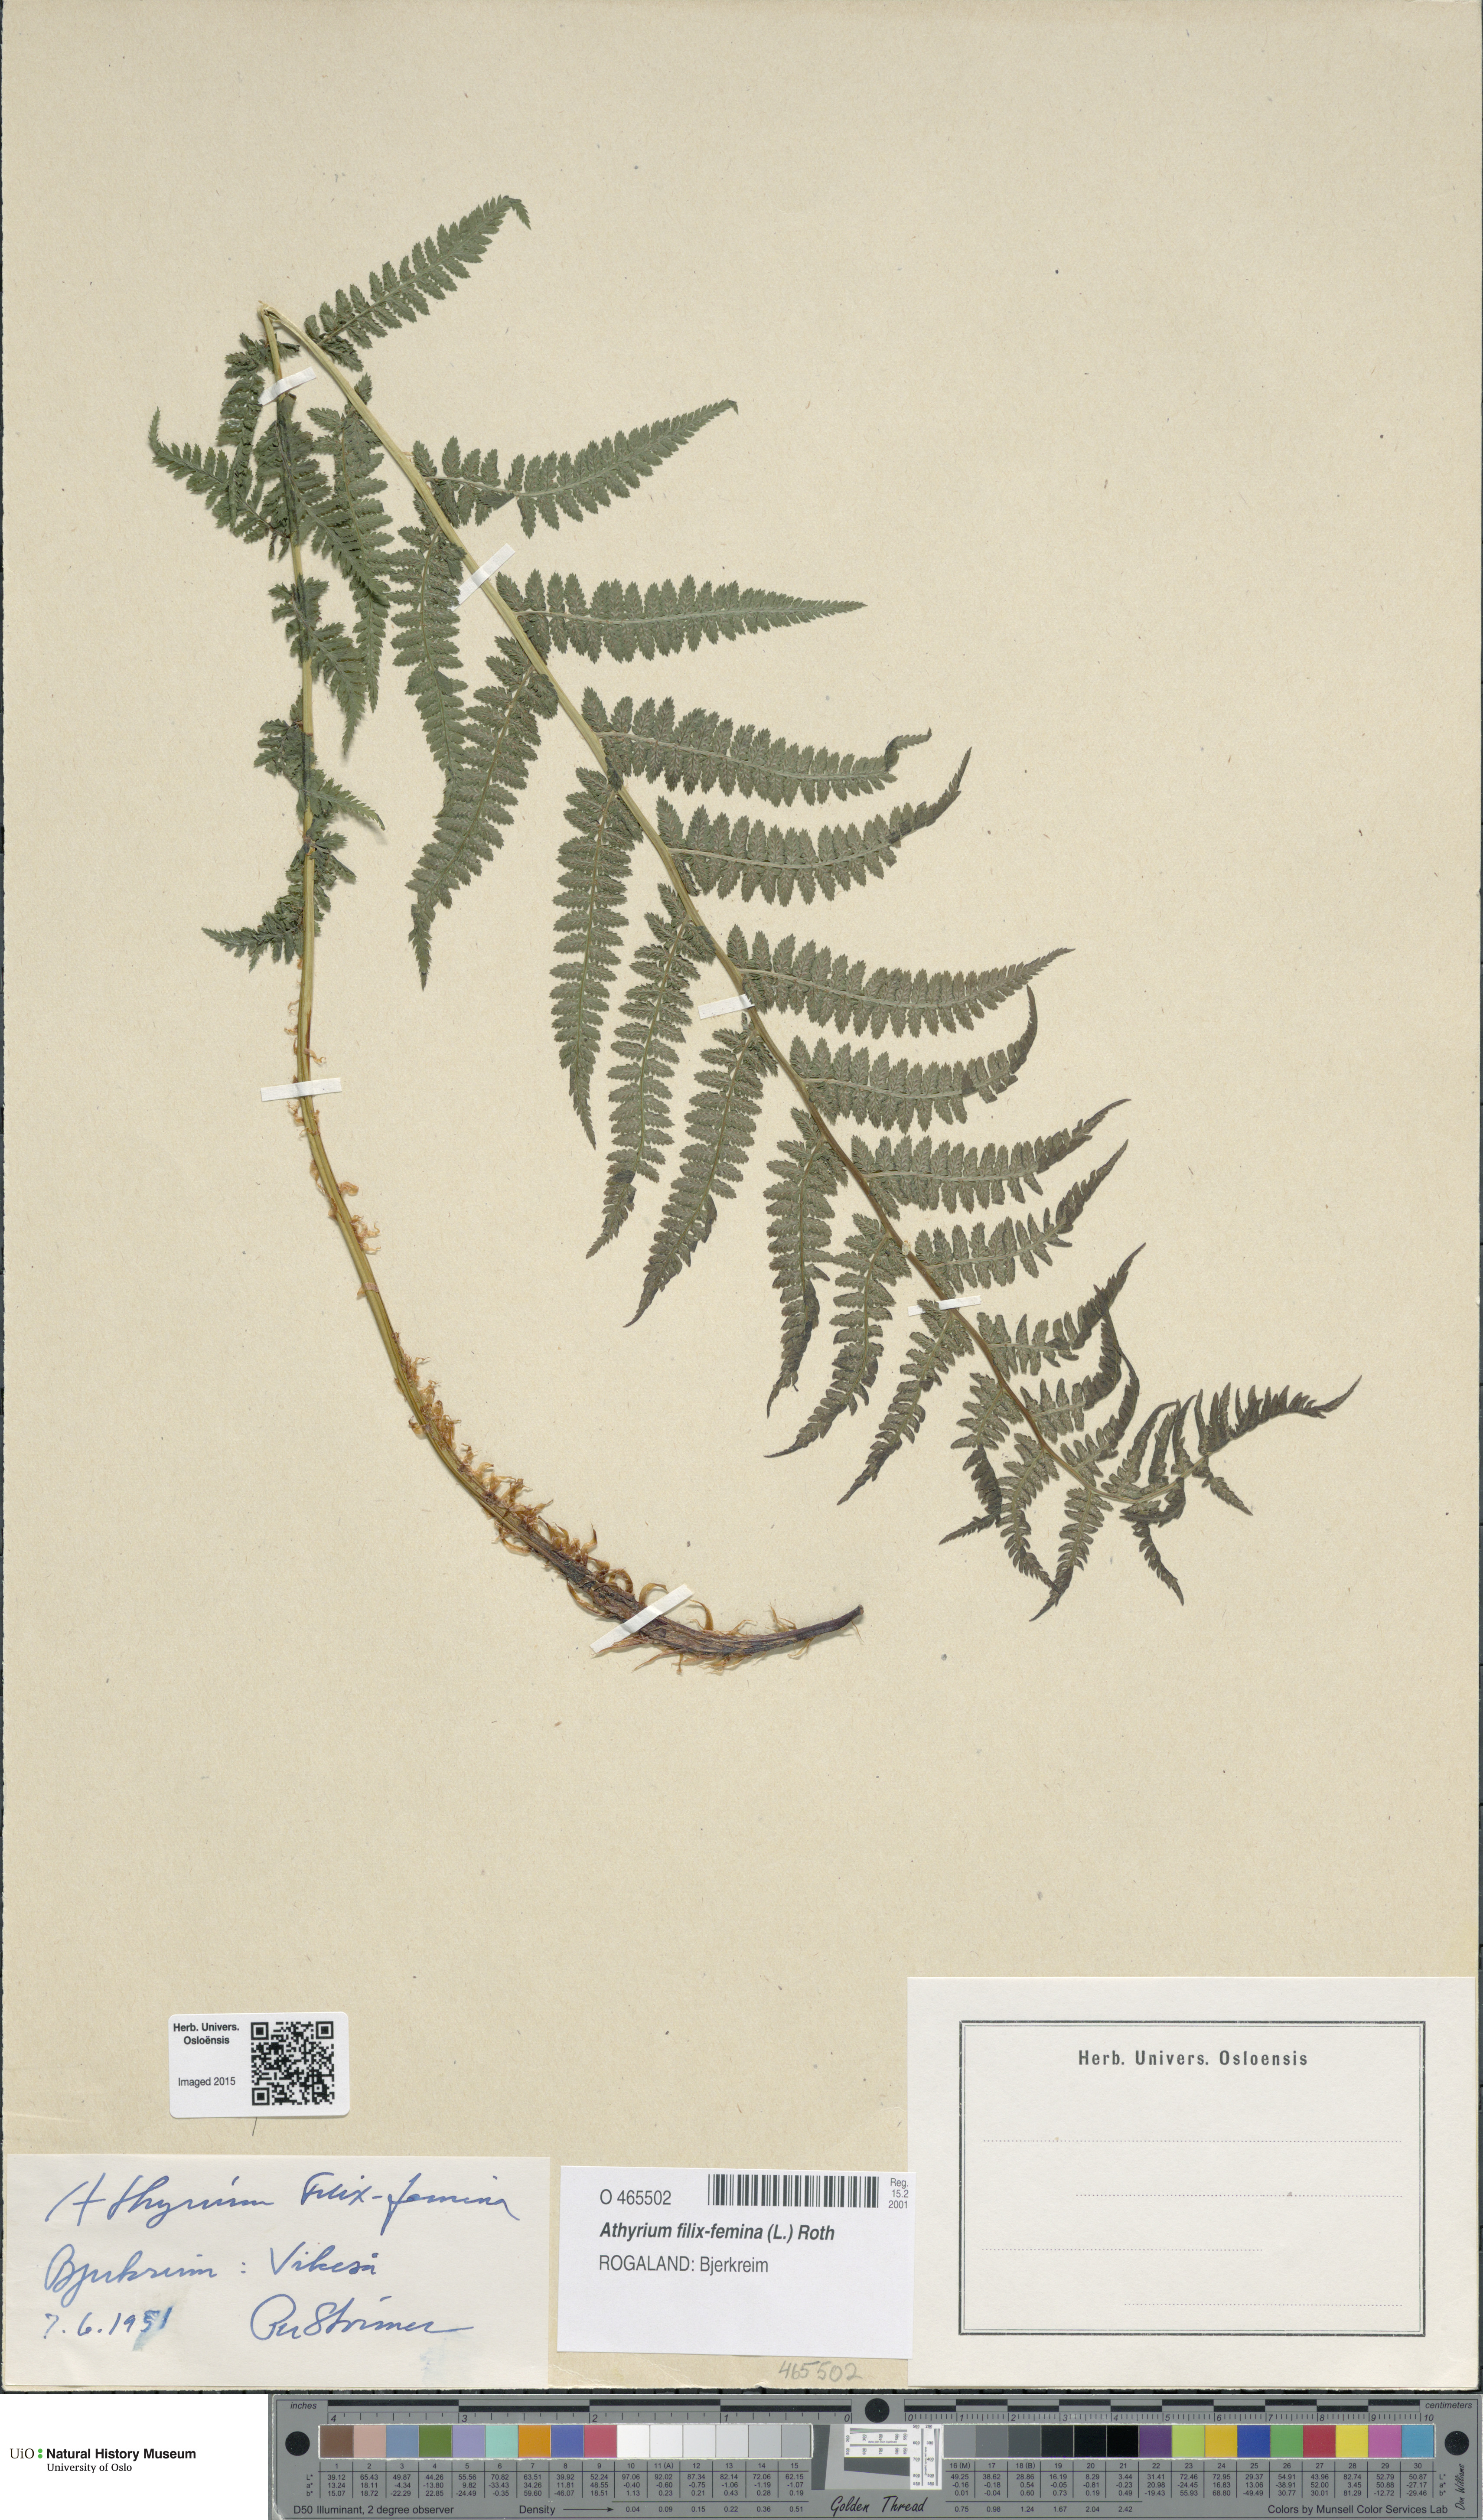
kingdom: Plantae
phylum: Tracheophyta
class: Polypodiopsida
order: Polypodiales
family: Athyriaceae
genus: Athyrium
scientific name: Athyrium filix-femina
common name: Lady fern
